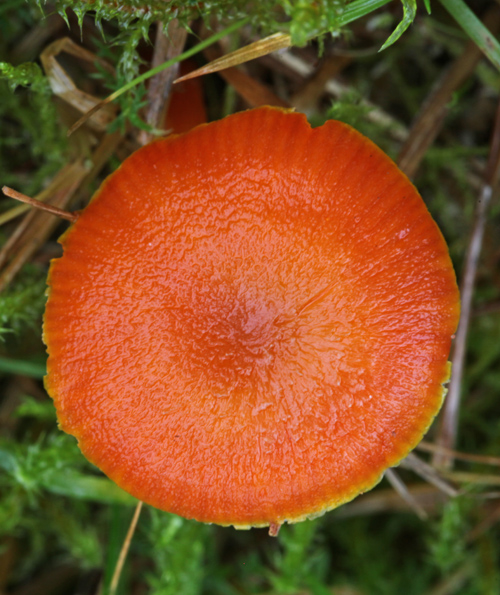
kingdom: Fungi
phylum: Basidiomycota
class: Agaricomycetes
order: Agaricales
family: Hygrophoraceae
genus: Hygrocybe
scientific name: Hygrocybe miniata
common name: mønje-vokshat
